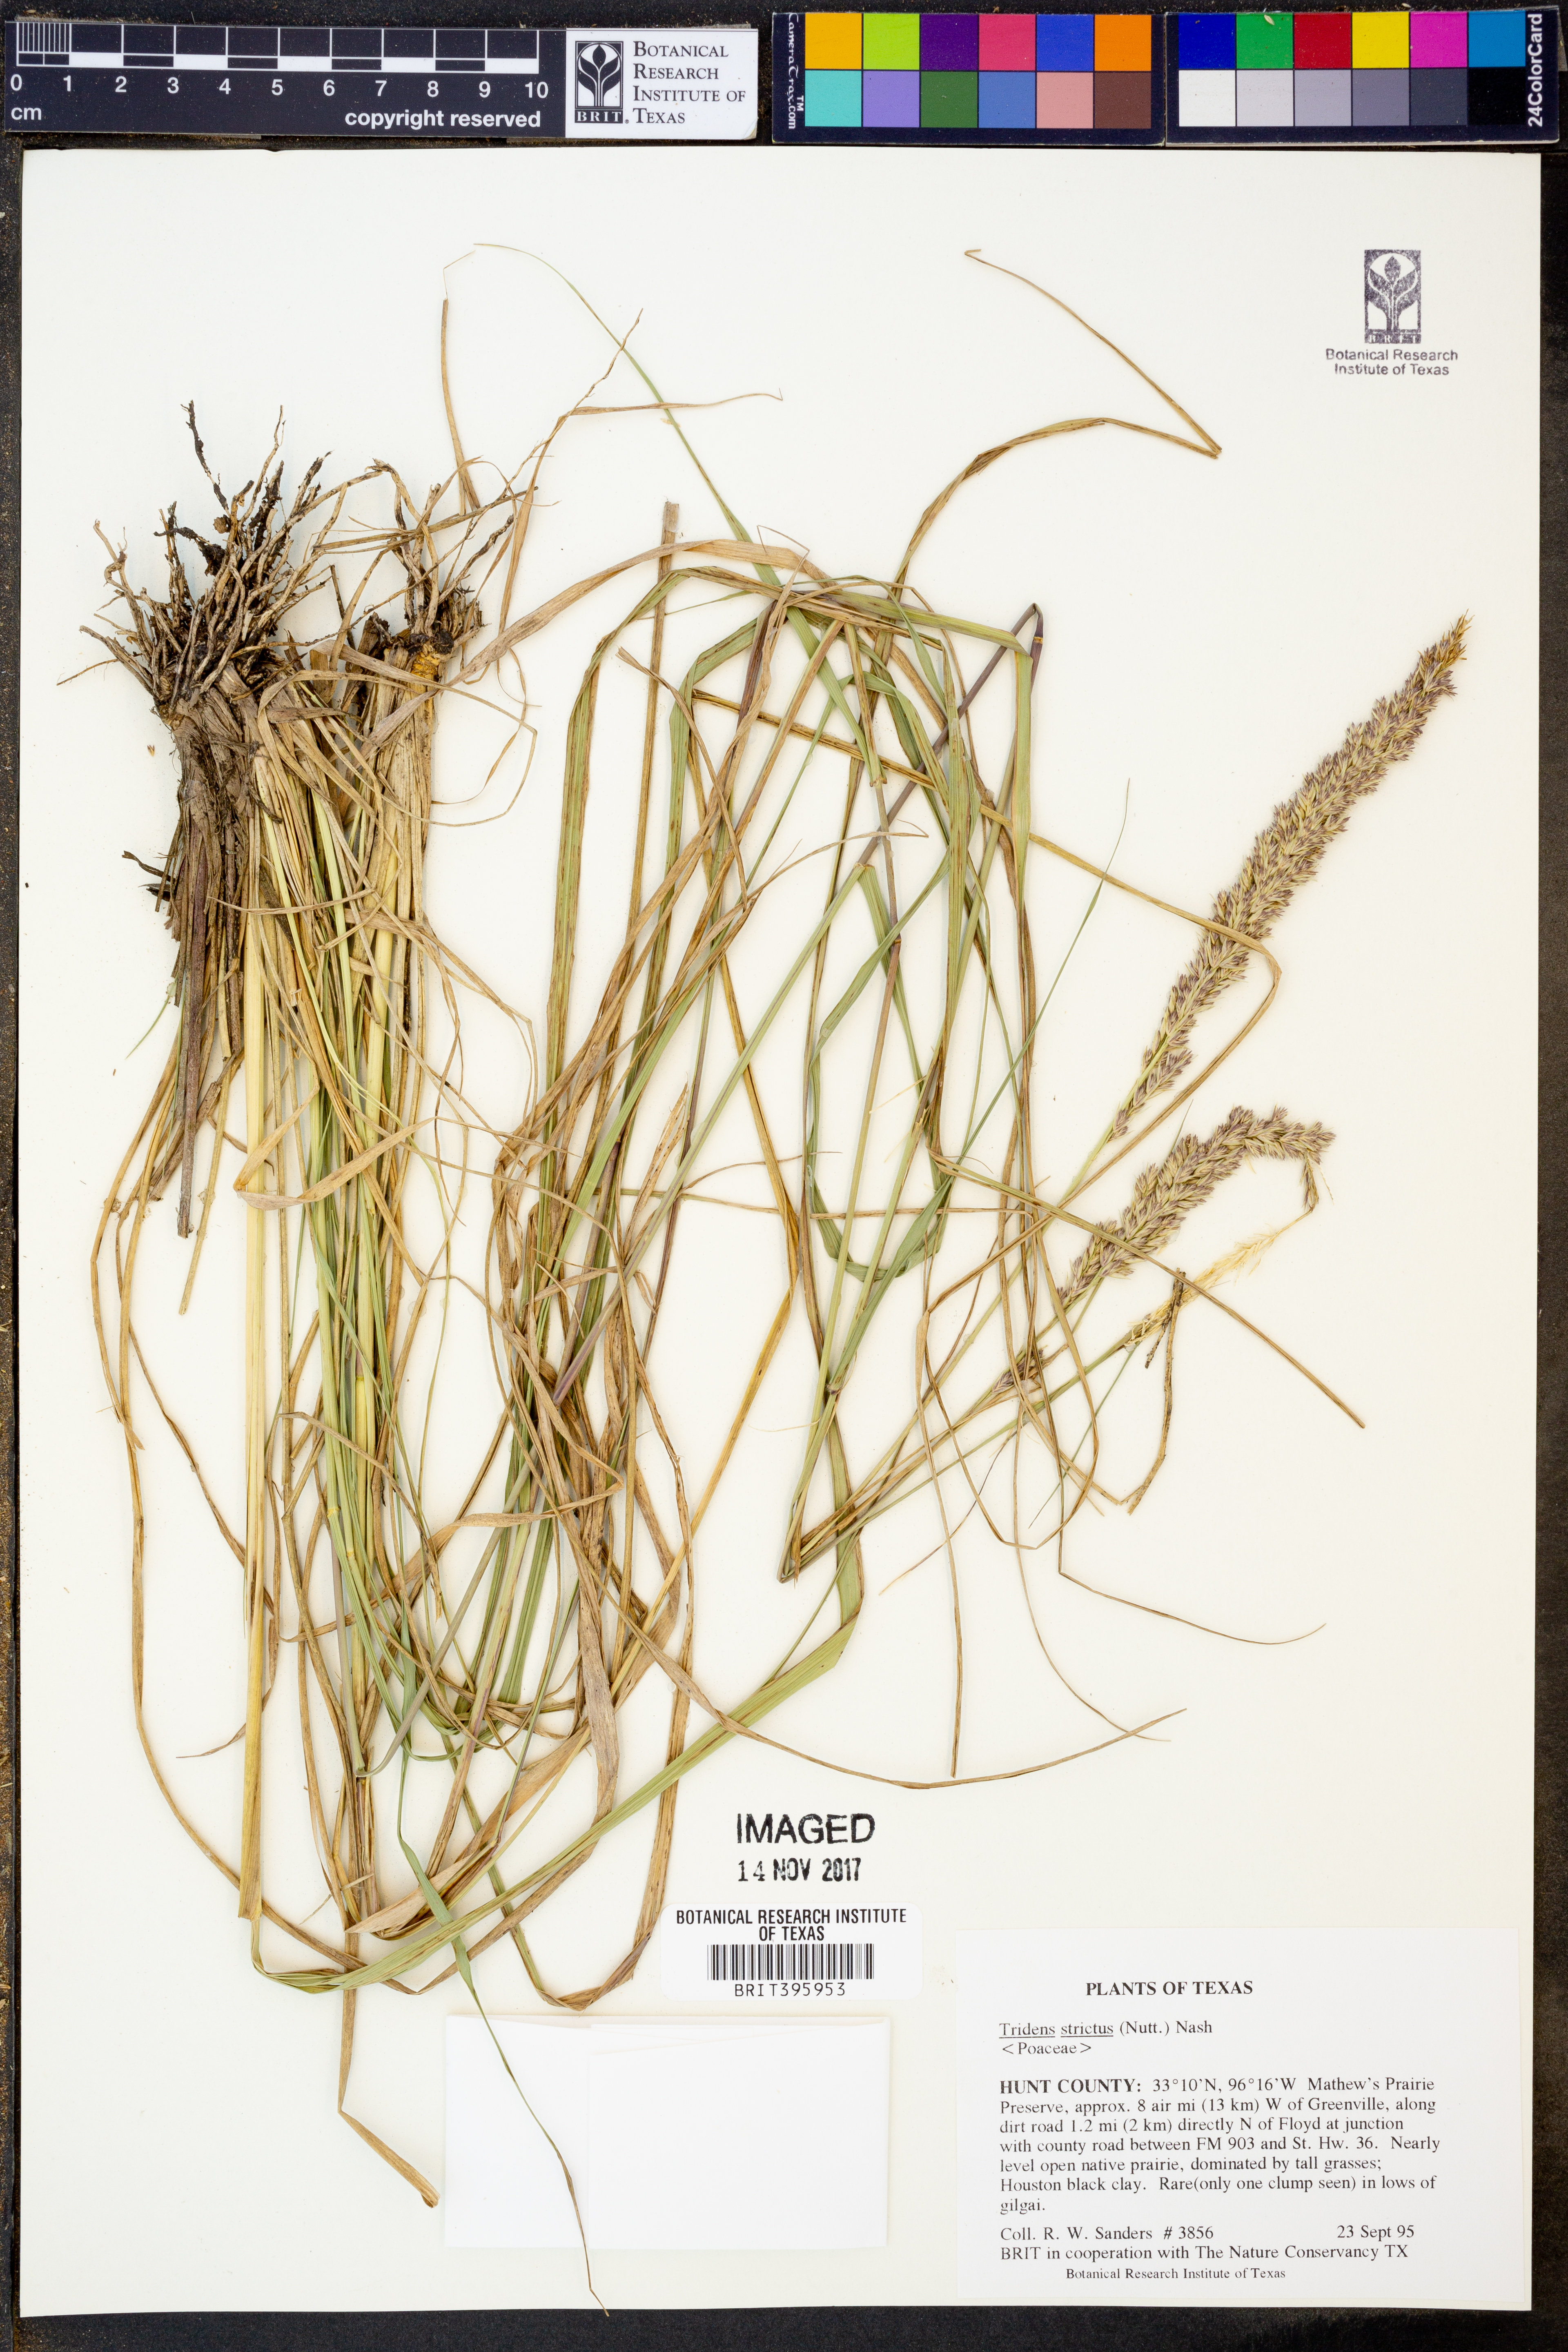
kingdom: Plantae
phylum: Tracheophyta
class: Liliopsida
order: Poales
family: Poaceae
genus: Tridens
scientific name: Tridens strictus
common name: Long-spike tridens
